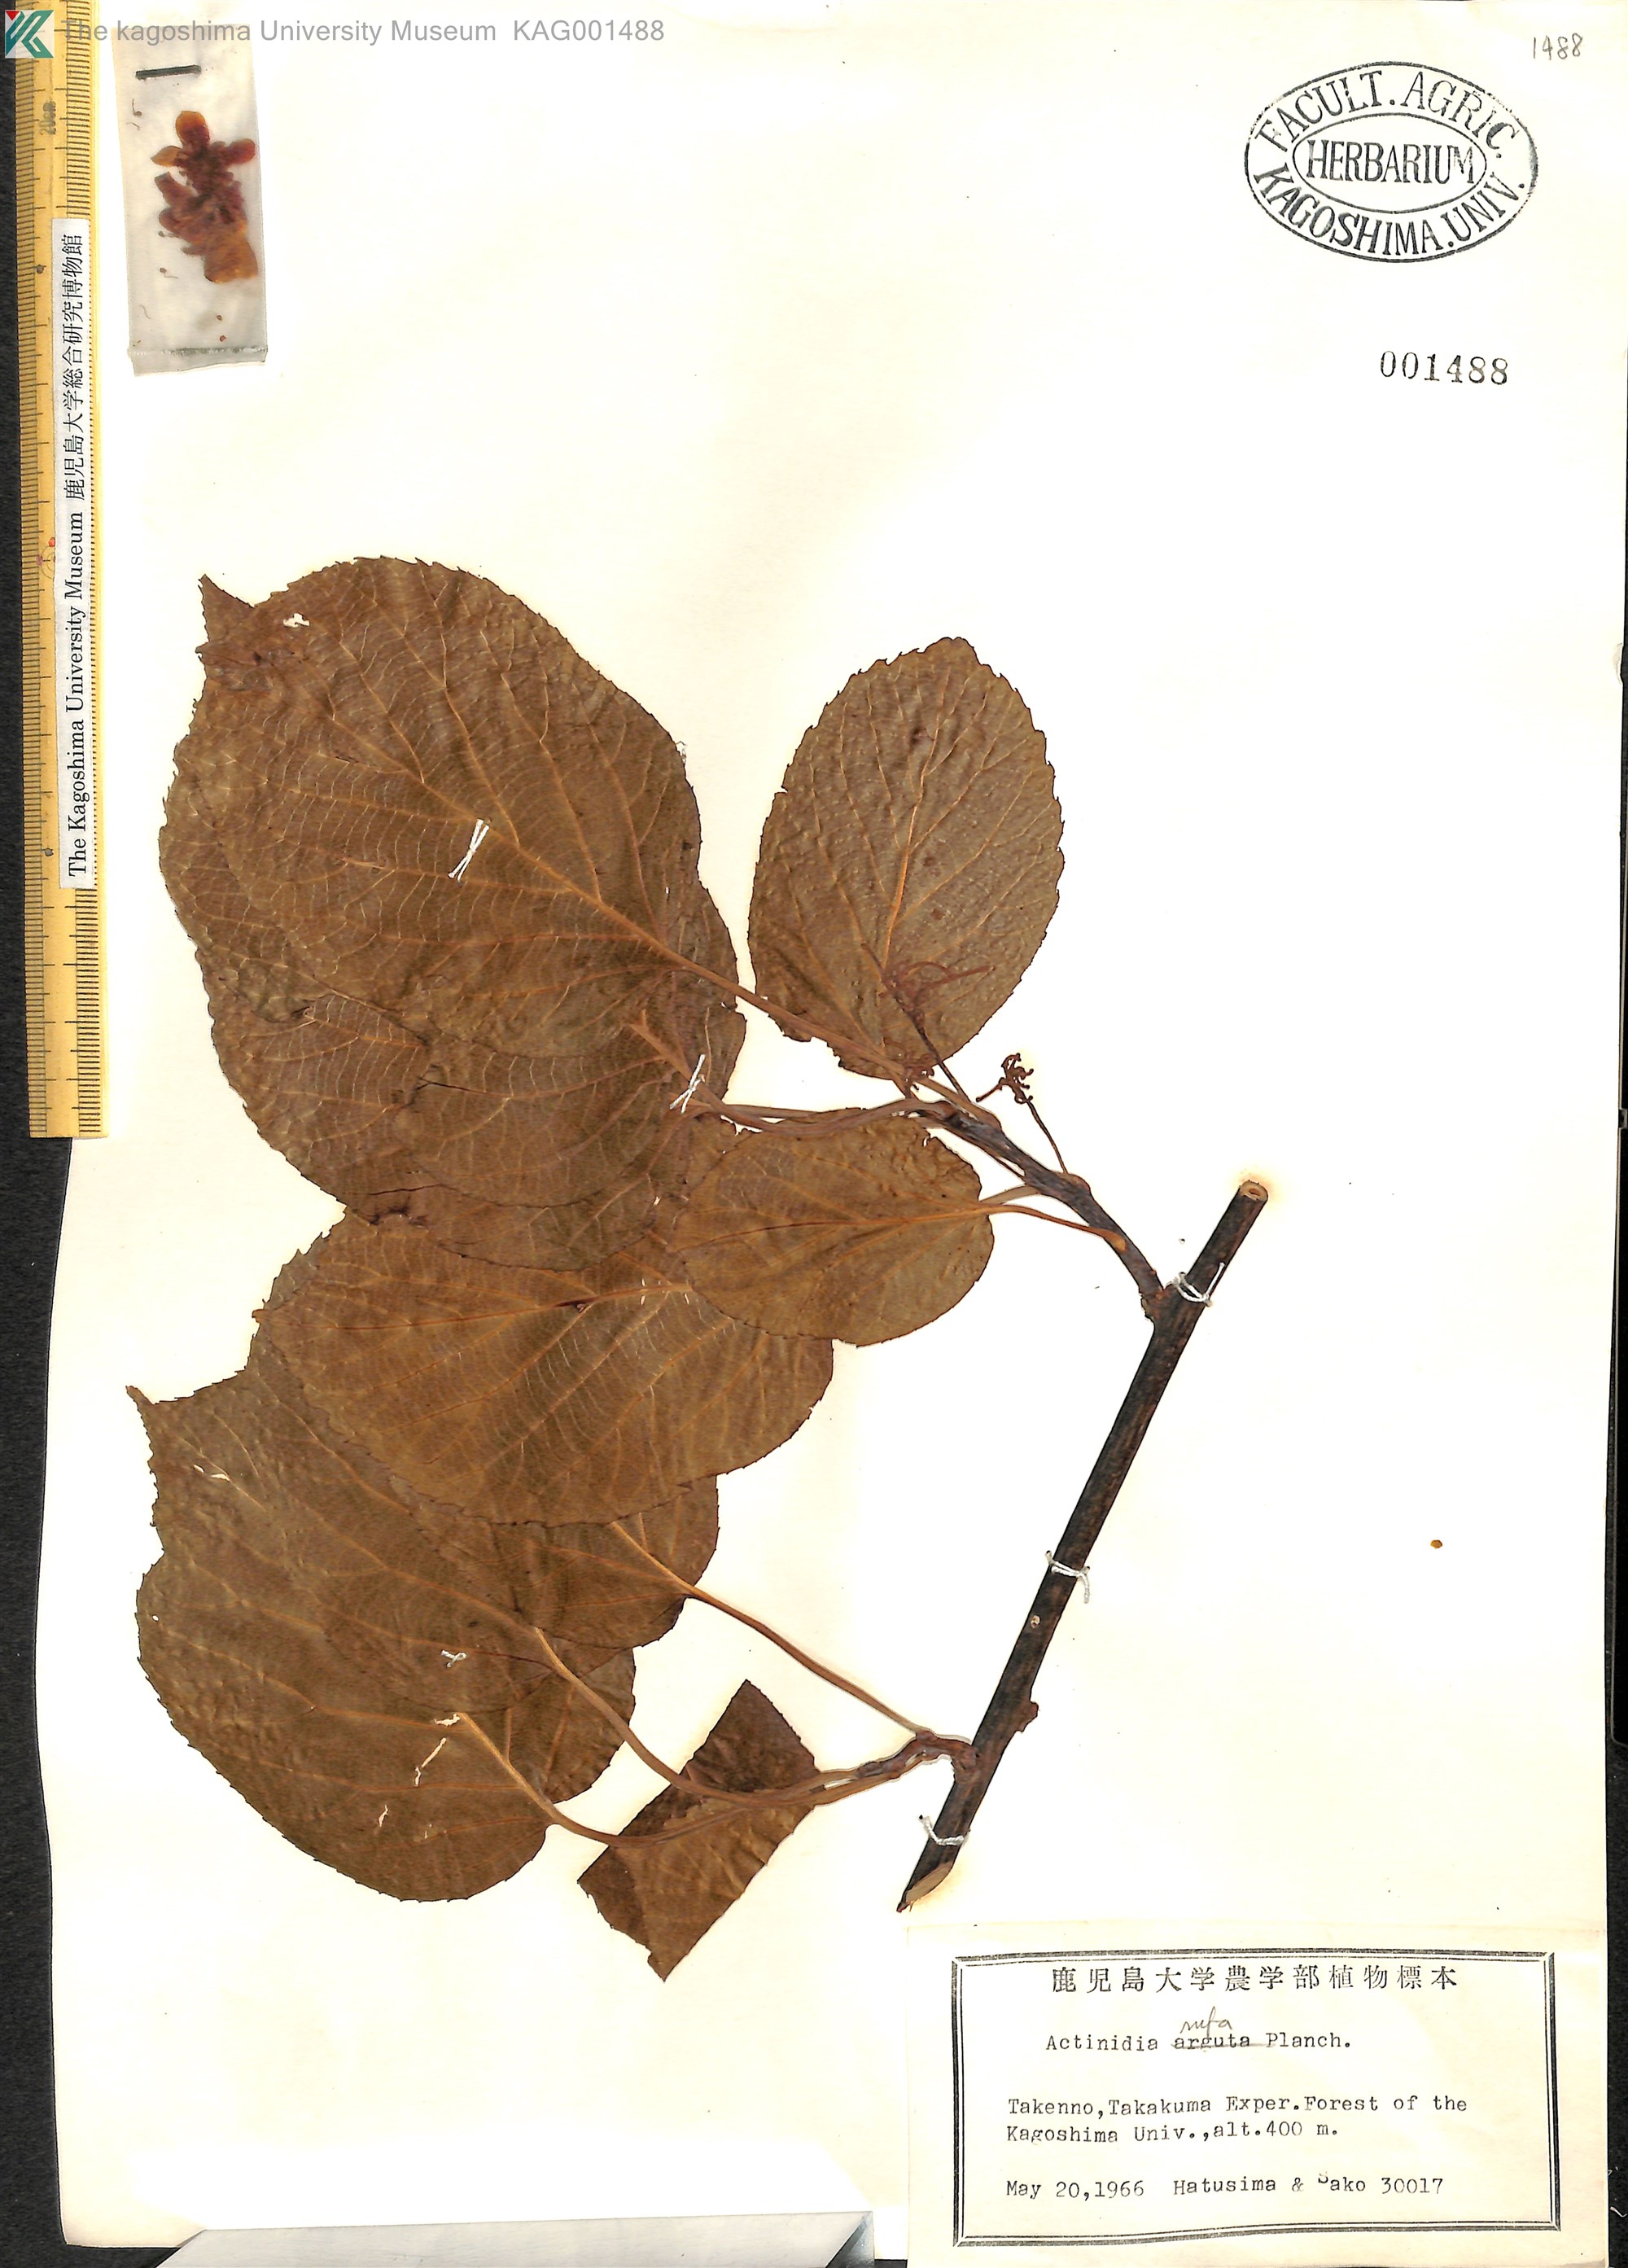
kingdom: Plantae
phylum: Tracheophyta
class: Magnoliopsida
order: Ericales
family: Actinidiaceae
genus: Actinidia
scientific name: Actinidia rufa
